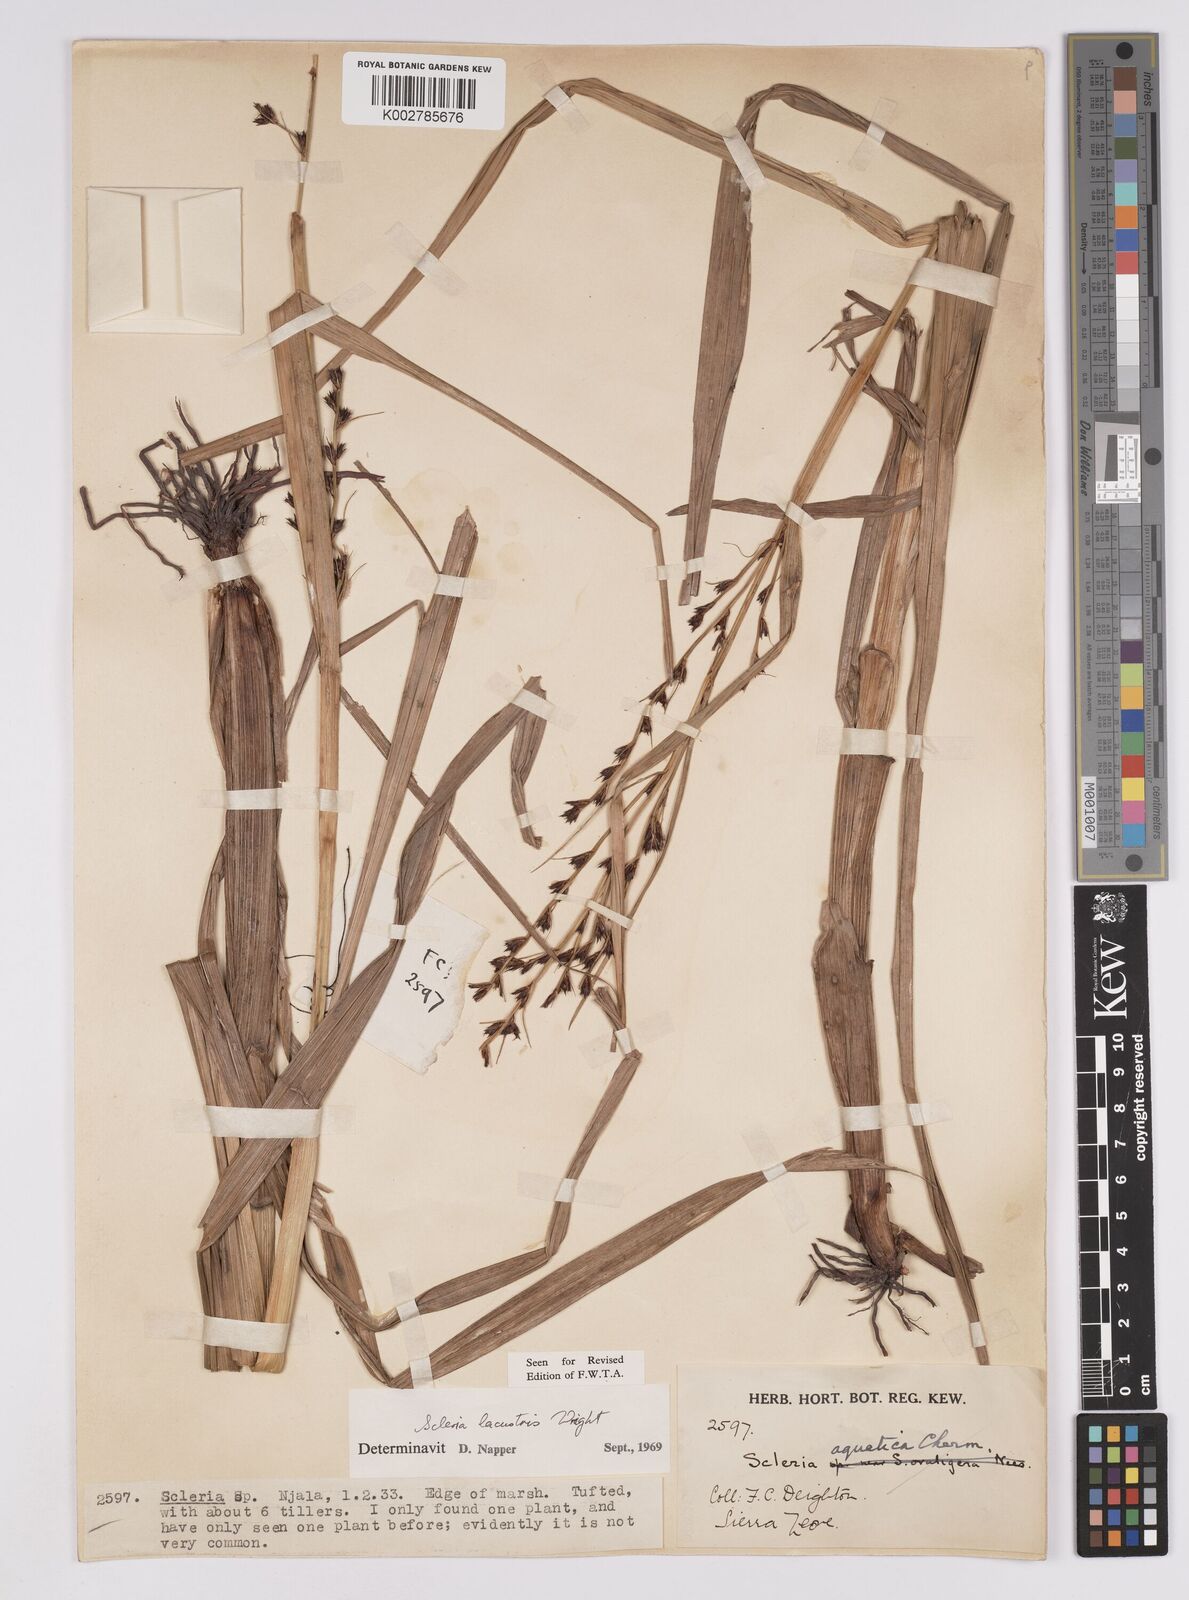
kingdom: Plantae
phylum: Tracheophyta
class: Liliopsida
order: Poales
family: Cyperaceae
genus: Scleria
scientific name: Scleria lacustris
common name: Lakeshore nutrush
